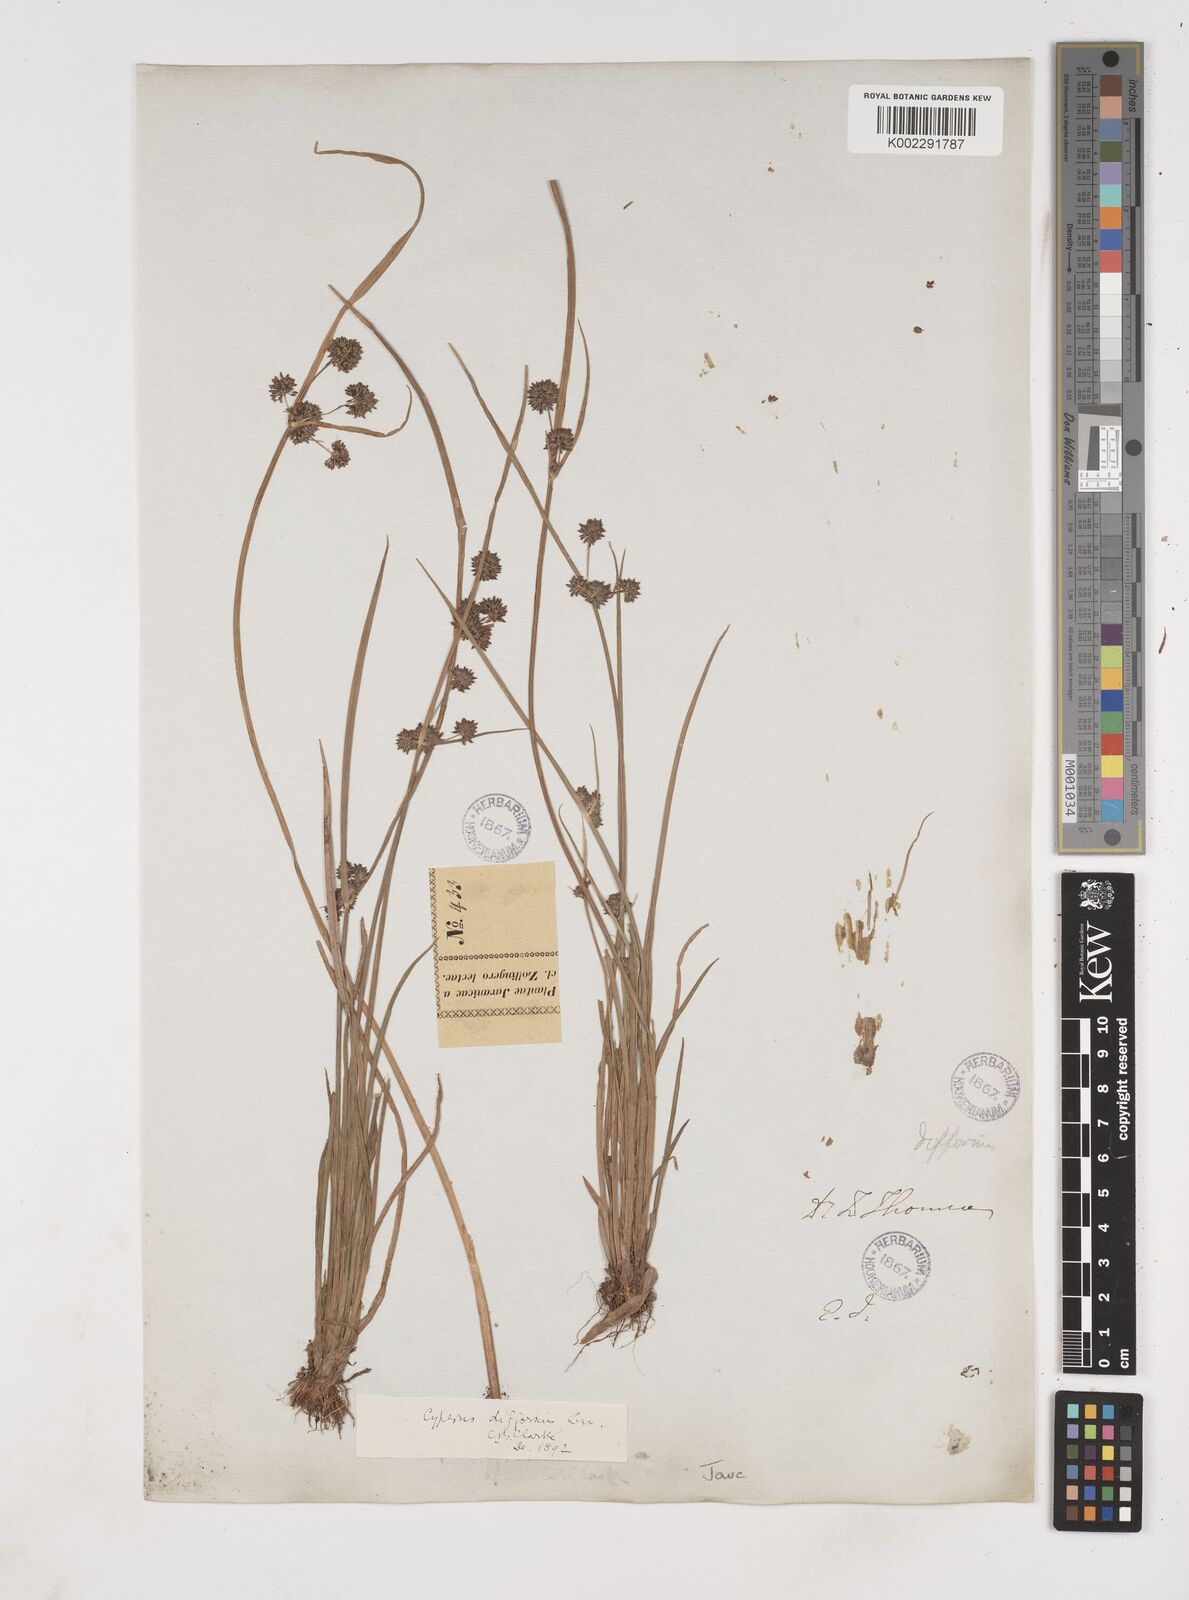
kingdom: Plantae
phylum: Tracheophyta
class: Liliopsida
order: Poales
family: Cyperaceae
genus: Cyperus
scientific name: Cyperus difformis
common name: Variable flatsedge
